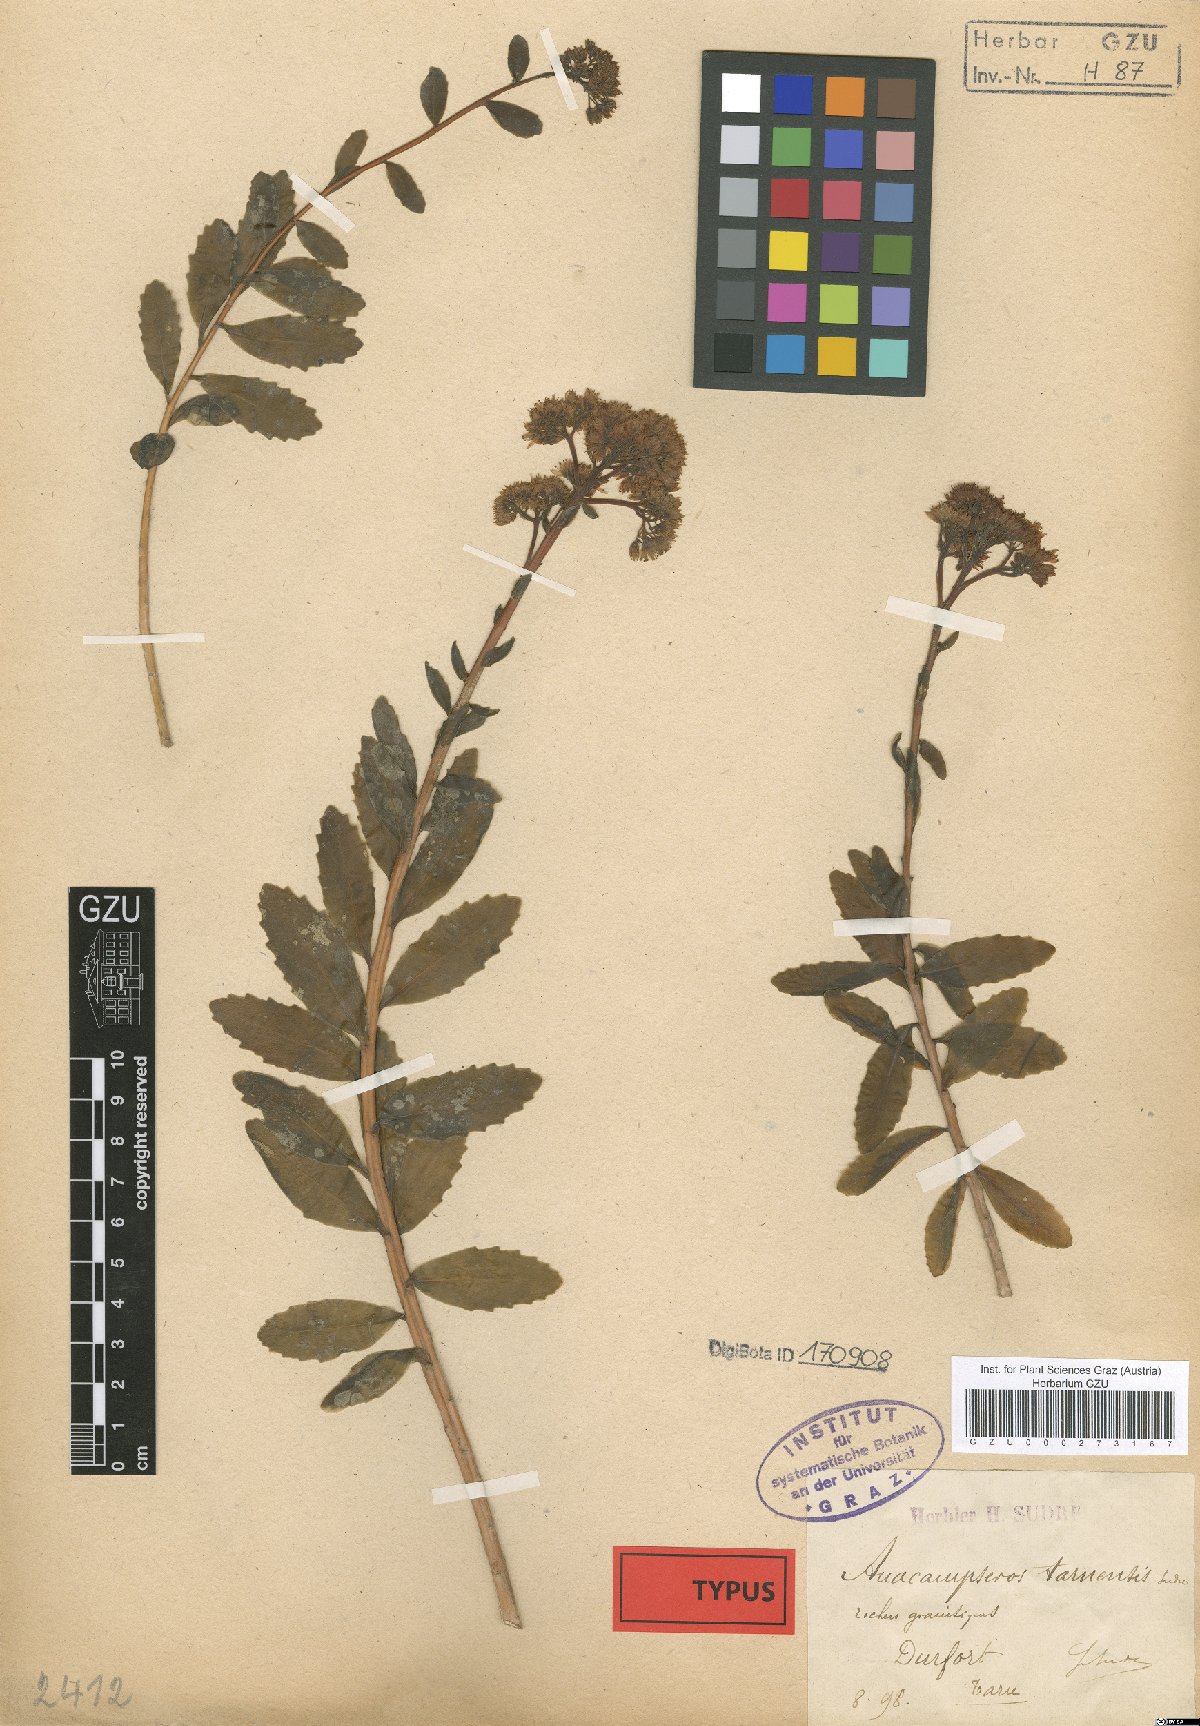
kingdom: Plantae
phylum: Tracheophyta
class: Magnoliopsida
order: Saxifragales
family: Crassulaceae
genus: Hylotelephium
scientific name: Hylotelephium telephium
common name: Live-forever
